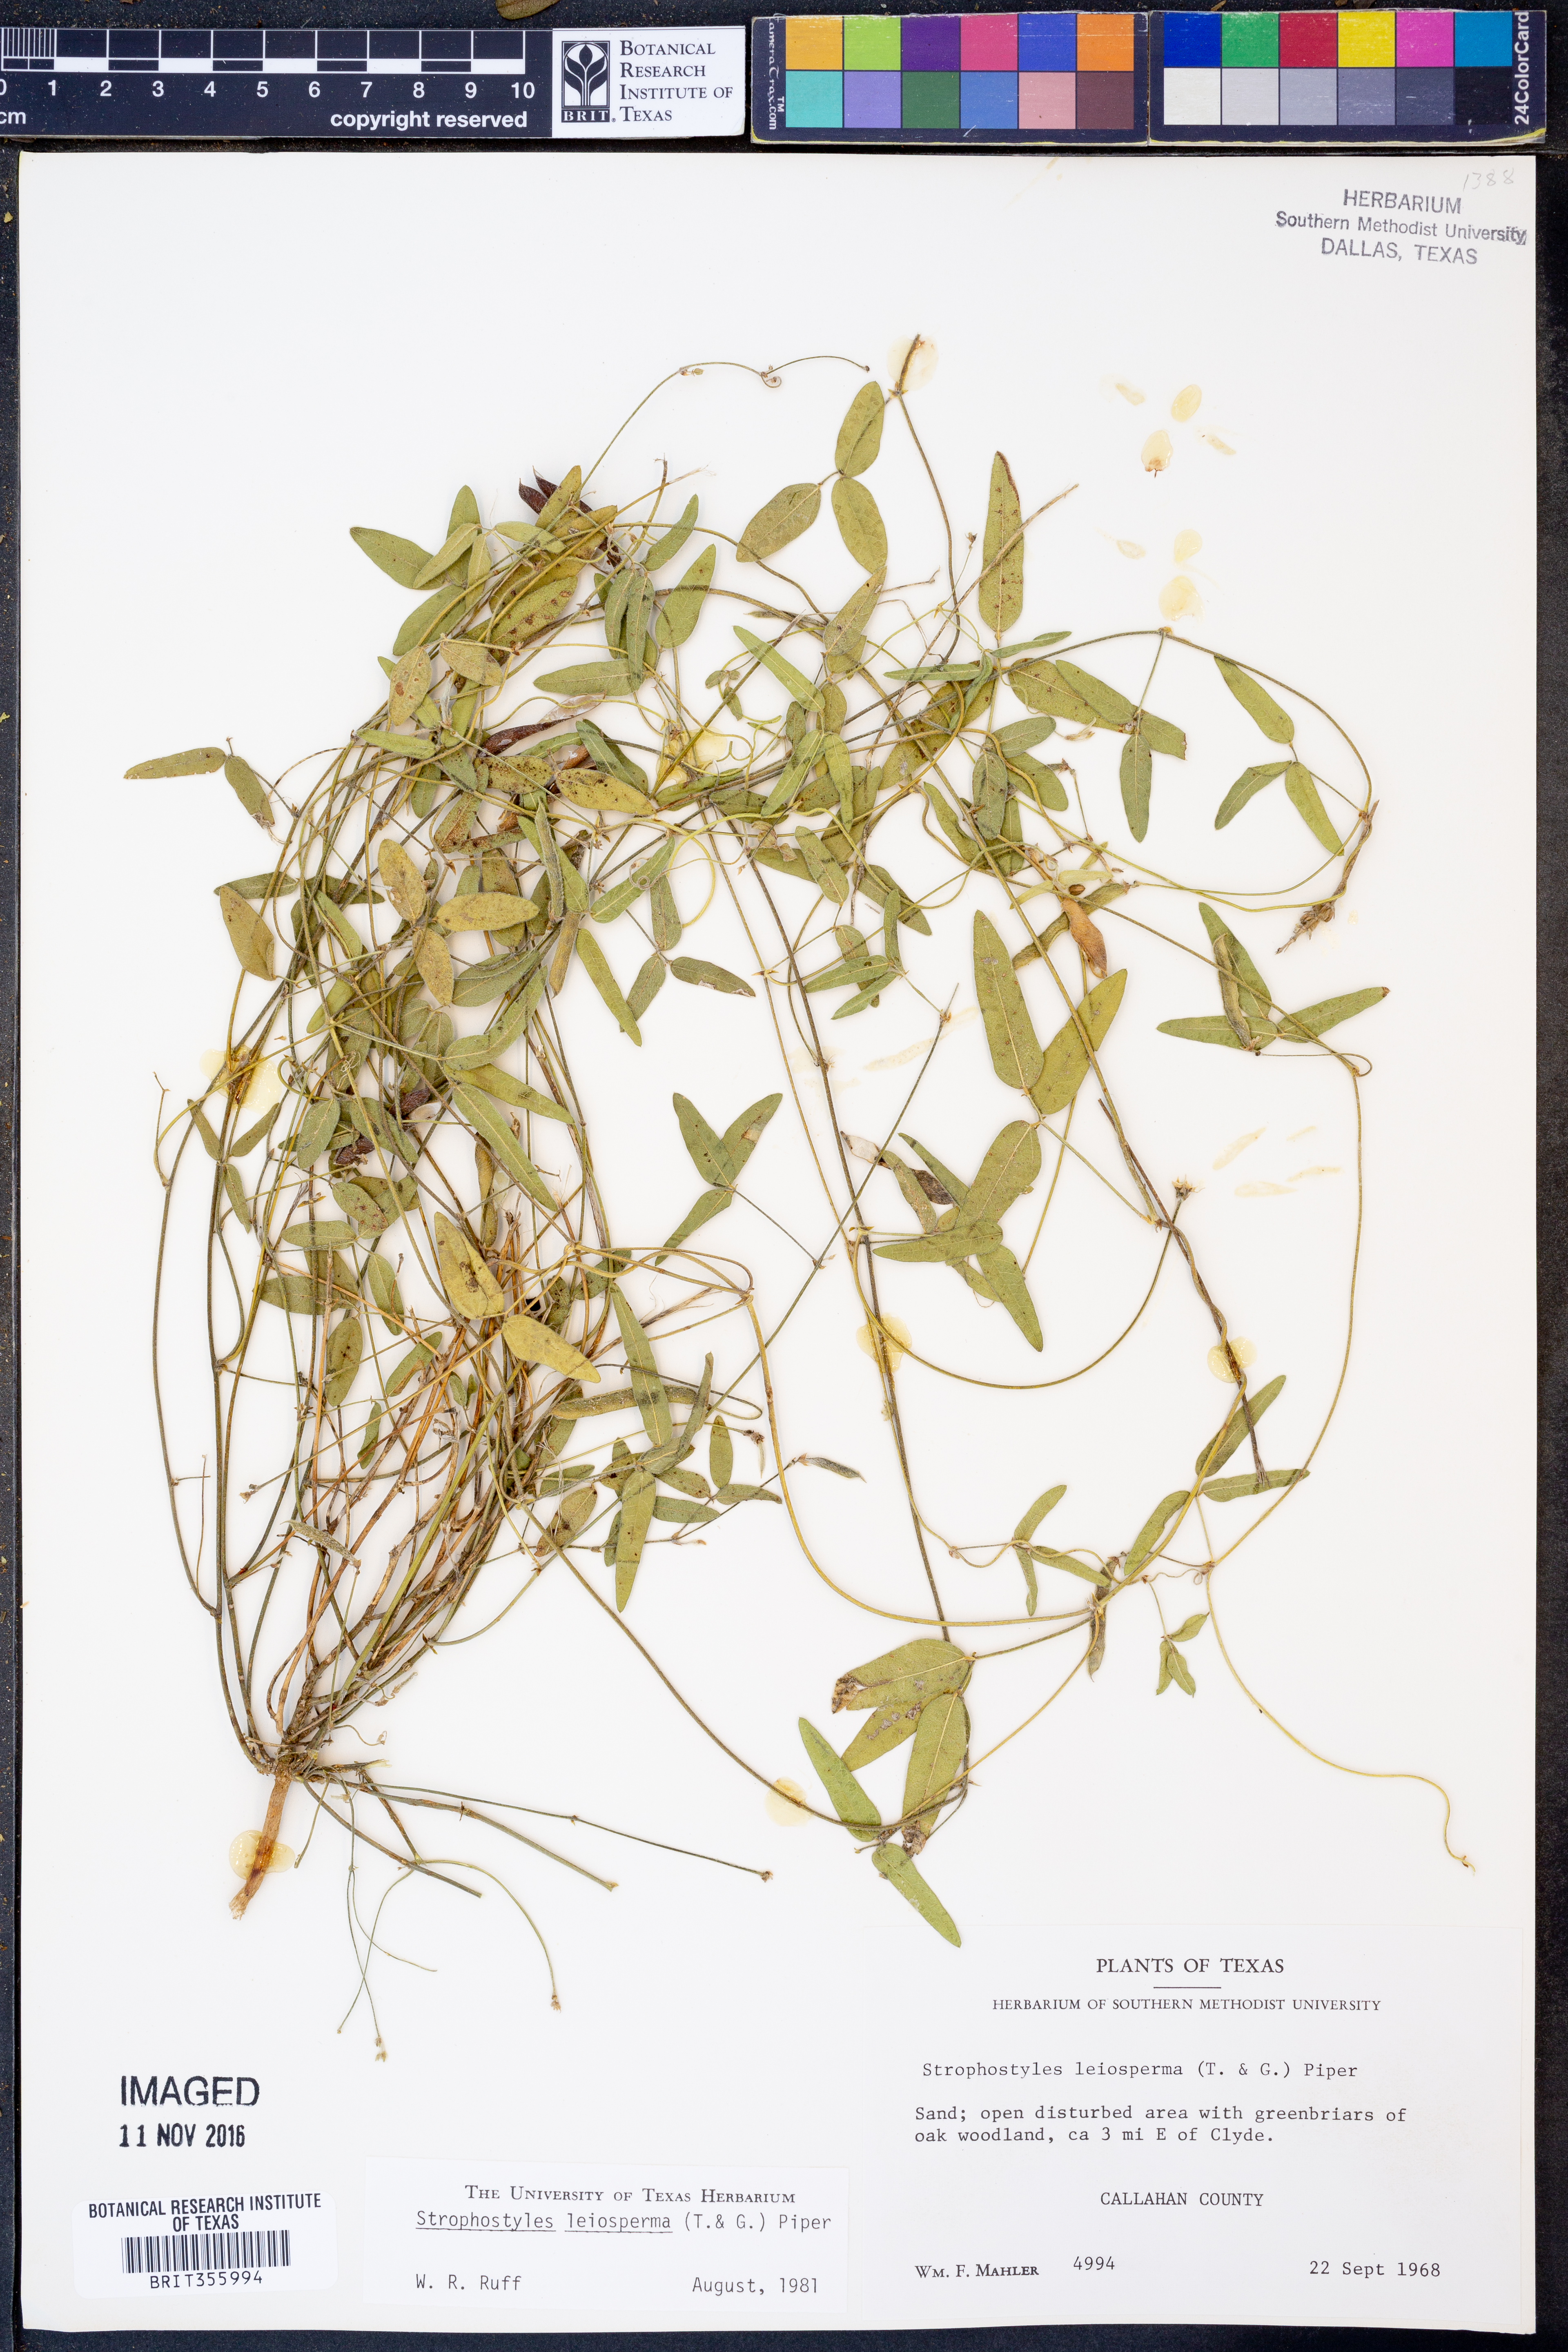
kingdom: Plantae
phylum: Tracheophyta
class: Magnoliopsida
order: Fabales
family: Fabaceae
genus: Strophostyles
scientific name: Strophostyles leiosperma
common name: Smooth-seed wild bean
